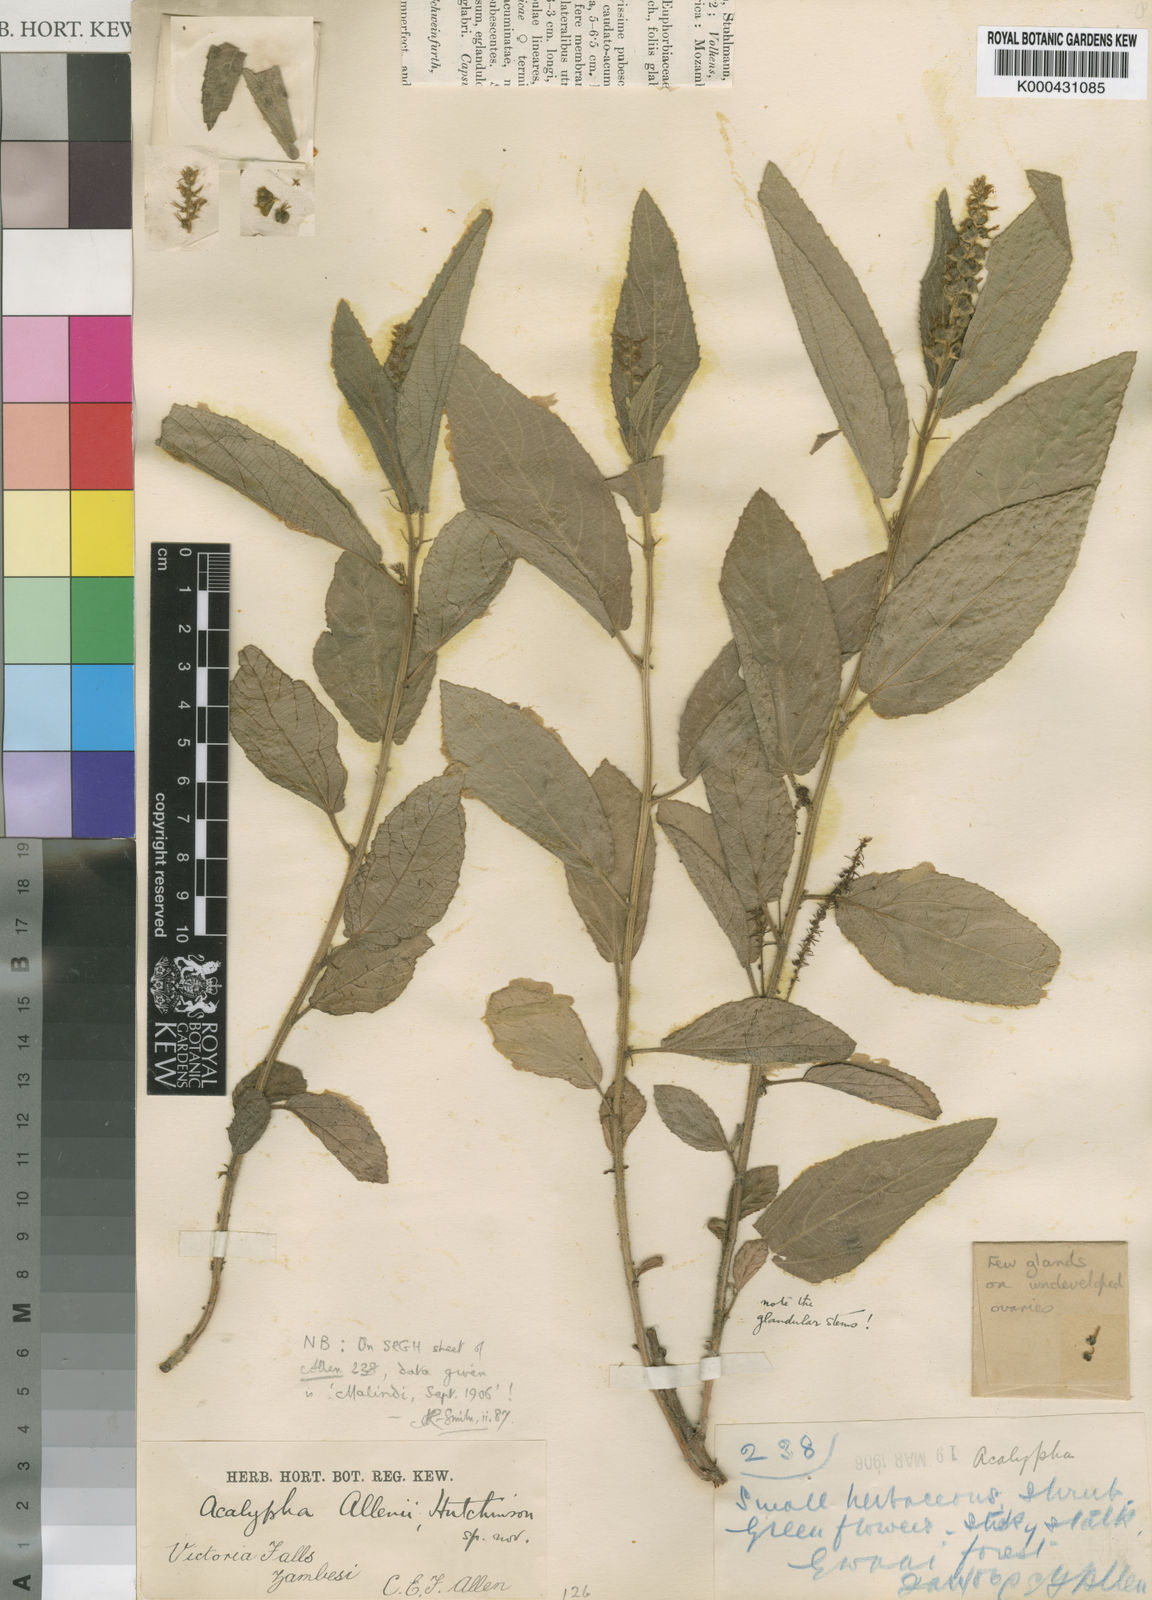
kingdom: Plantae
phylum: Tracheophyta
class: Magnoliopsida
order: Malpighiales
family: Euphorbiaceae
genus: Acalypha
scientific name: Acalypha allenii
